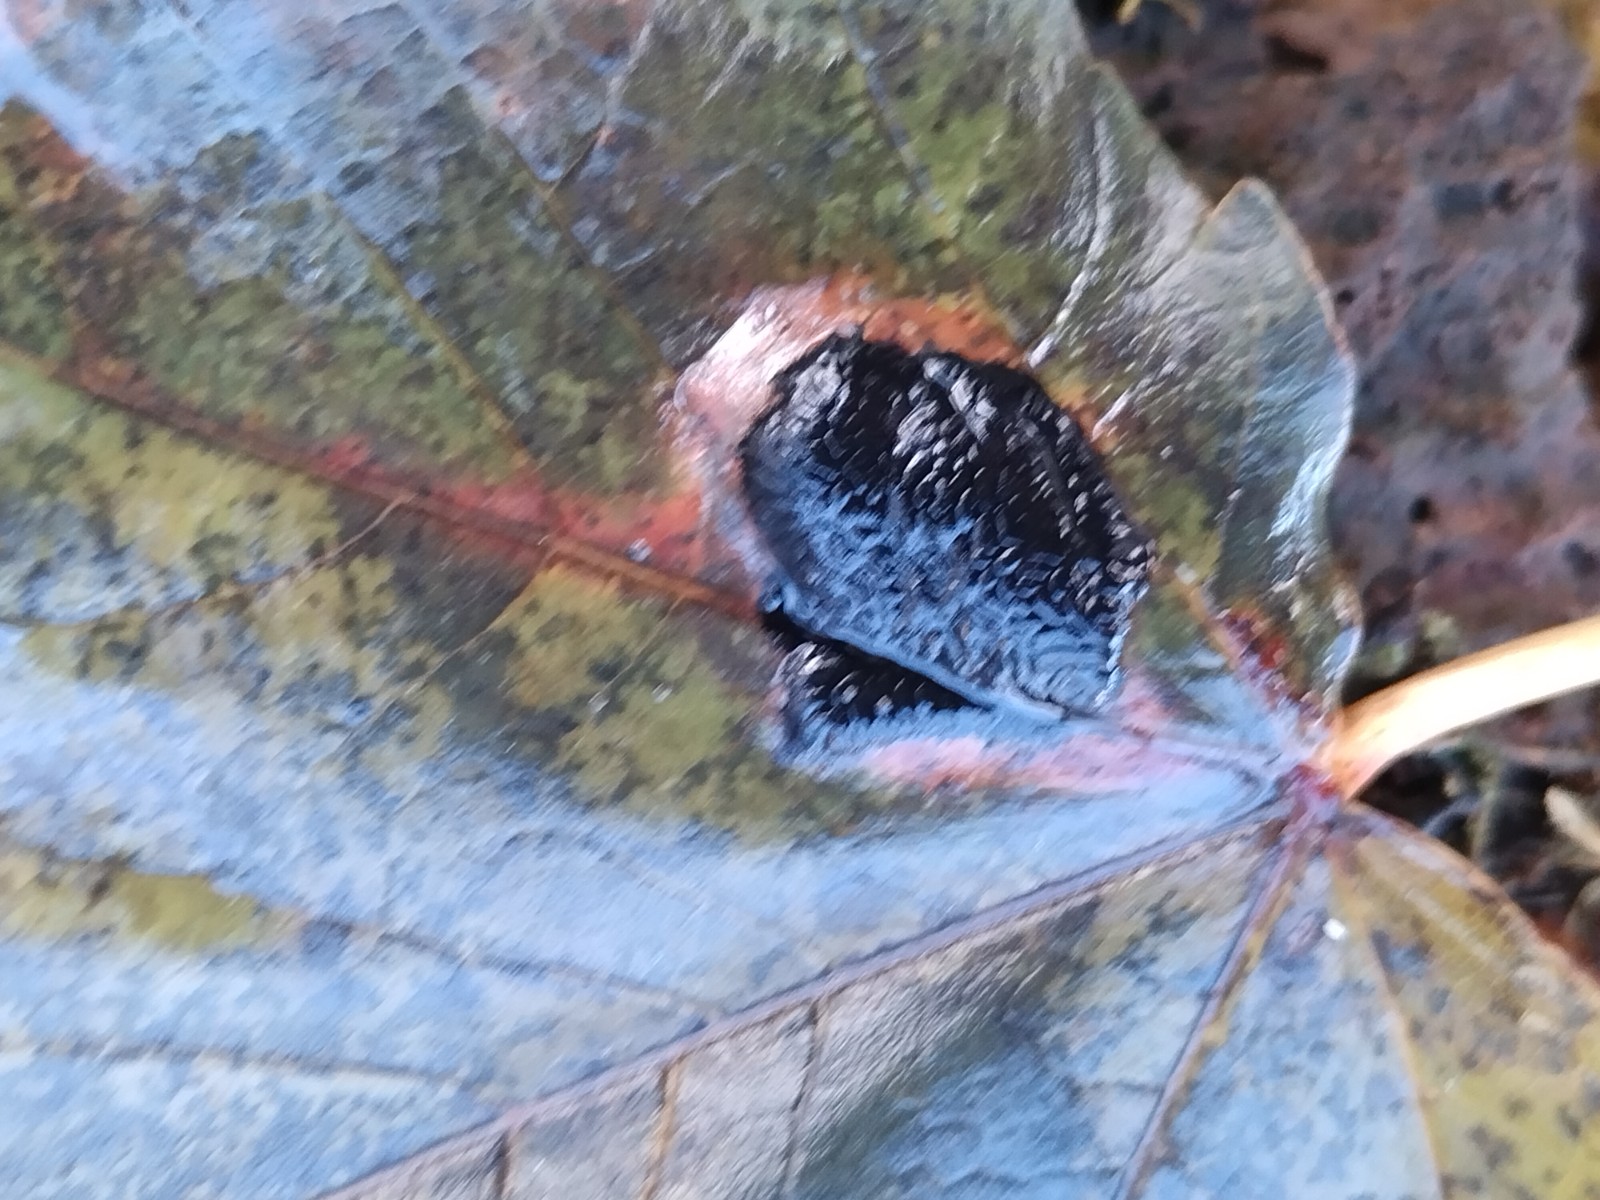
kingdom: Fungi
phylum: Ascomycota
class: Leotiomycetes
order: Rhytismatales
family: Rhytismataceae
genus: Rhytisma
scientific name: Rhytisma acerinum
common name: ahorn-rynkeplet
